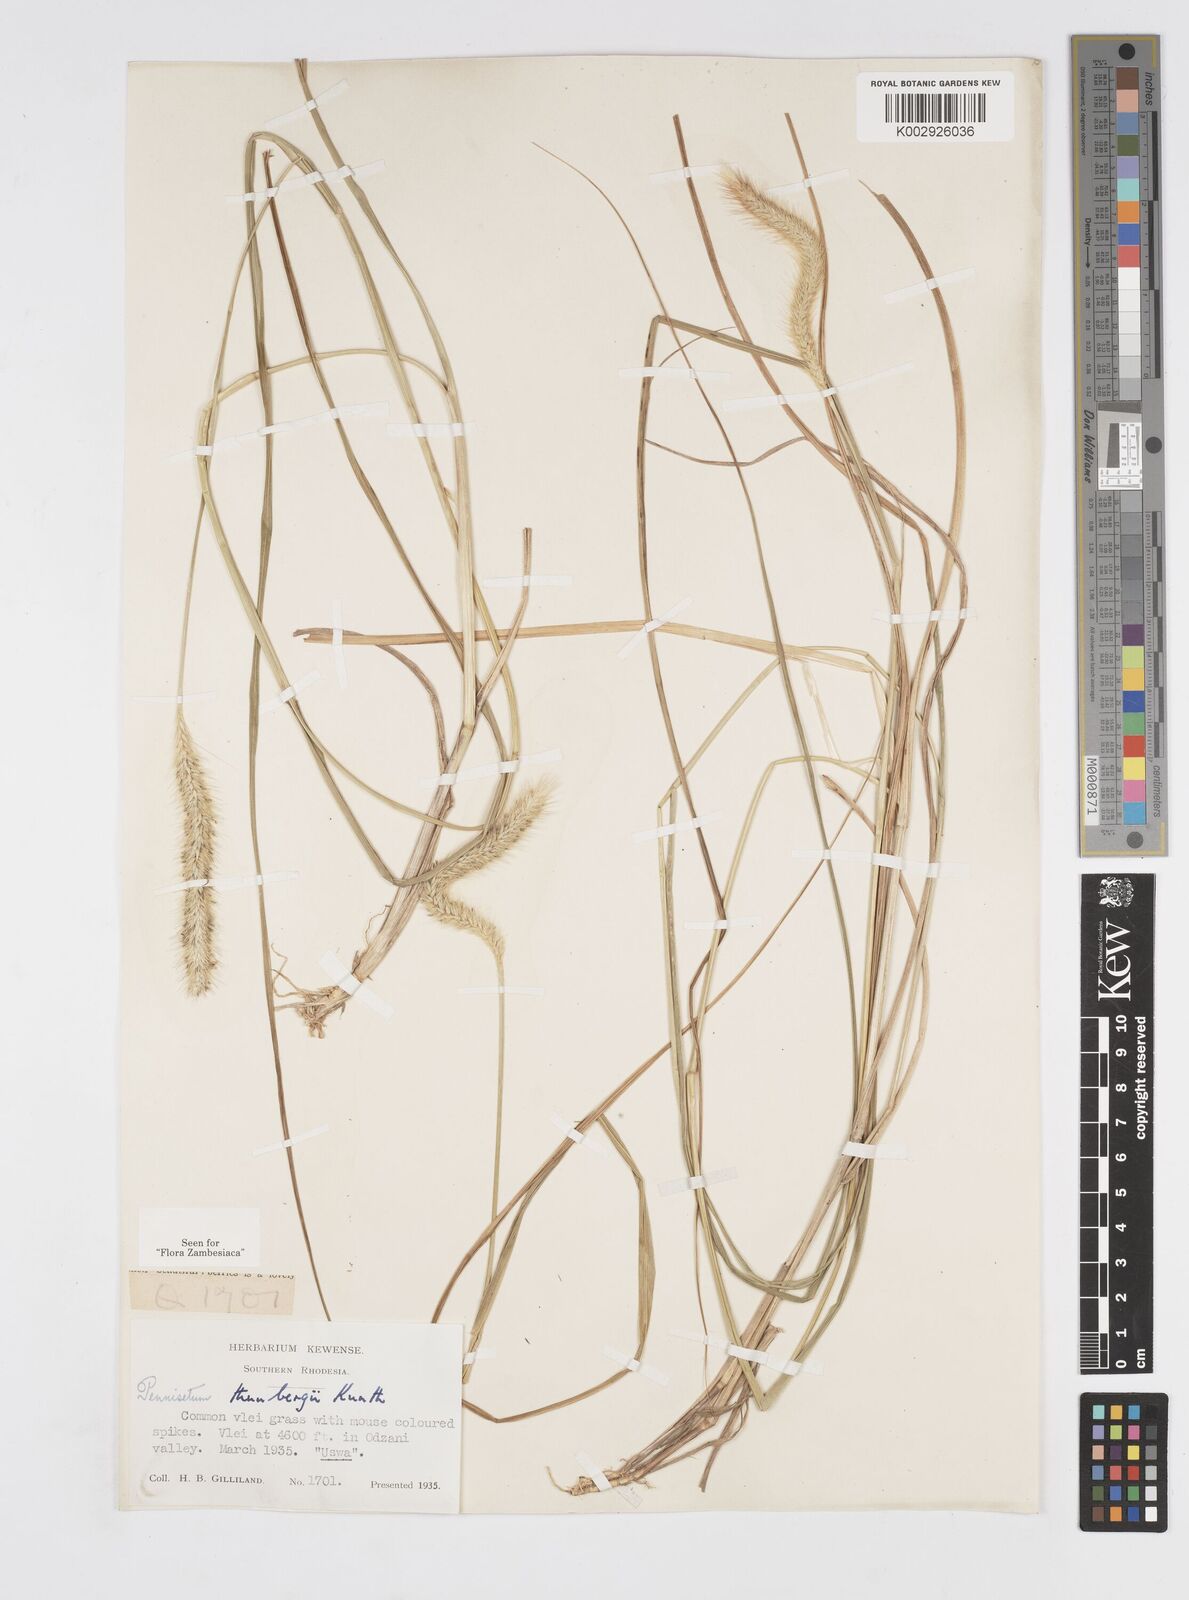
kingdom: Plantae
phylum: Tracheophyta
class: Liliopsida
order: Poales
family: Poaceae
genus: Cenchrus
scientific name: Cenchrus geniculatus
